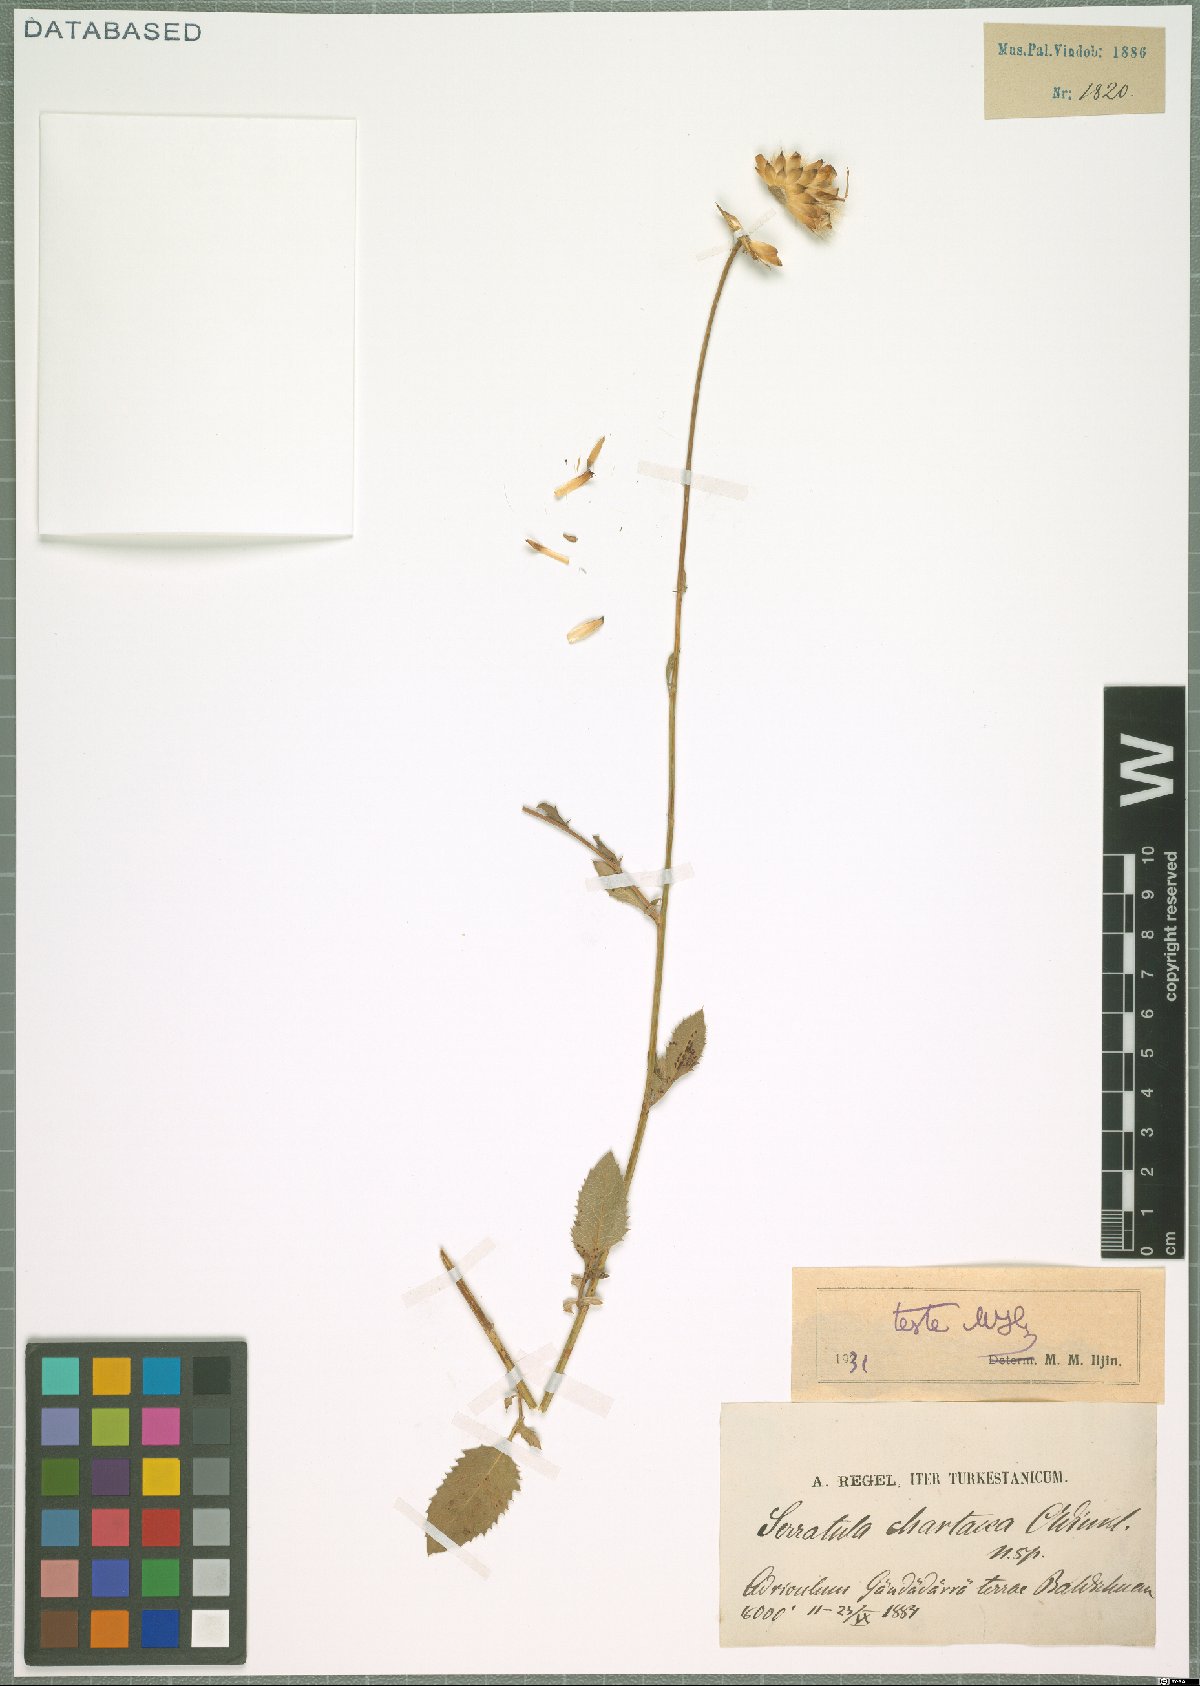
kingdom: Plantae
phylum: Tracheophyta
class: Magnoliopsida
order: Asterales
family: Asteraceae
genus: Klasea
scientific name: Klasea chartacea
